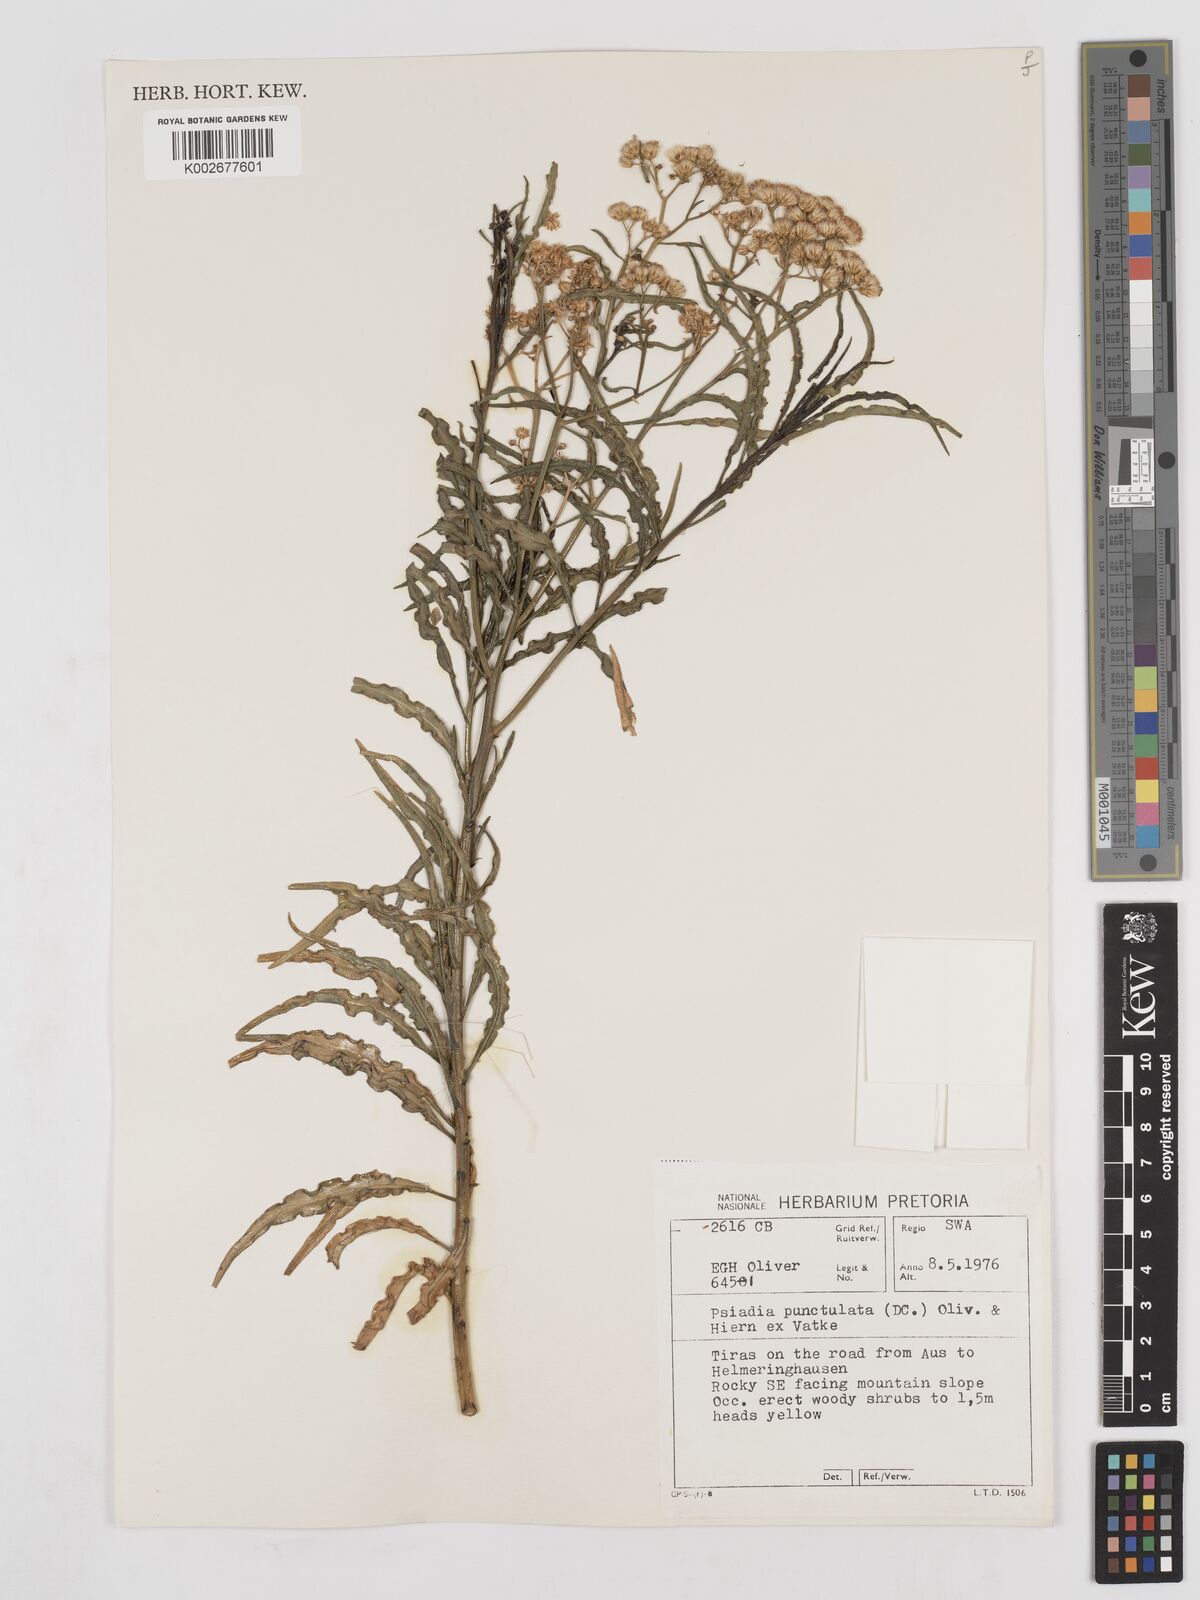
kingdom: Plantae
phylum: Tracheophyta
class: Magnoliopsida
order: Asterales
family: Asteraceae
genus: Psiadia
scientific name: Psiadia punctulata
